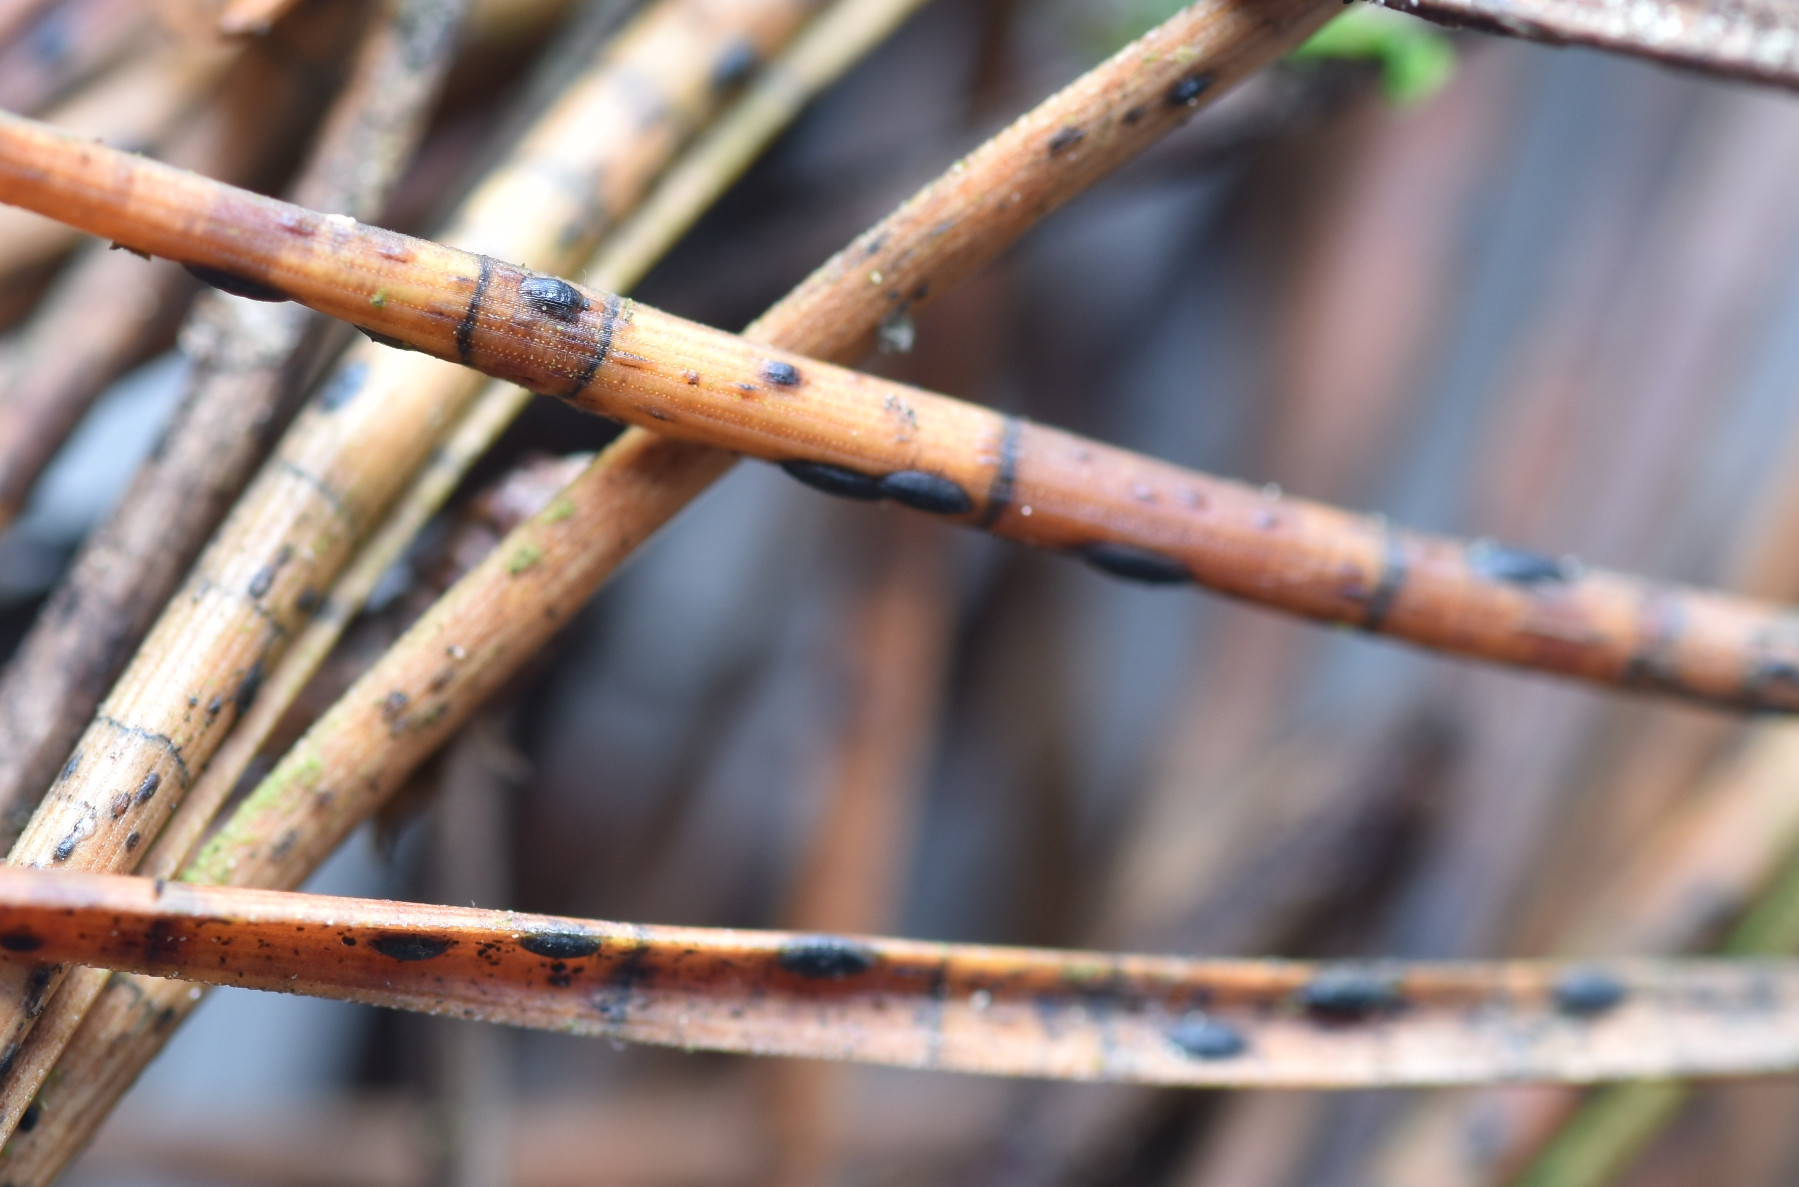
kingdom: Fungi
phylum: Ascomycota
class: Leotiomycetes
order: Rhytismatales
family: Rhytismataceae
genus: Lophodermium
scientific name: Lophodermium pinastri
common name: fyrre-fureplet
